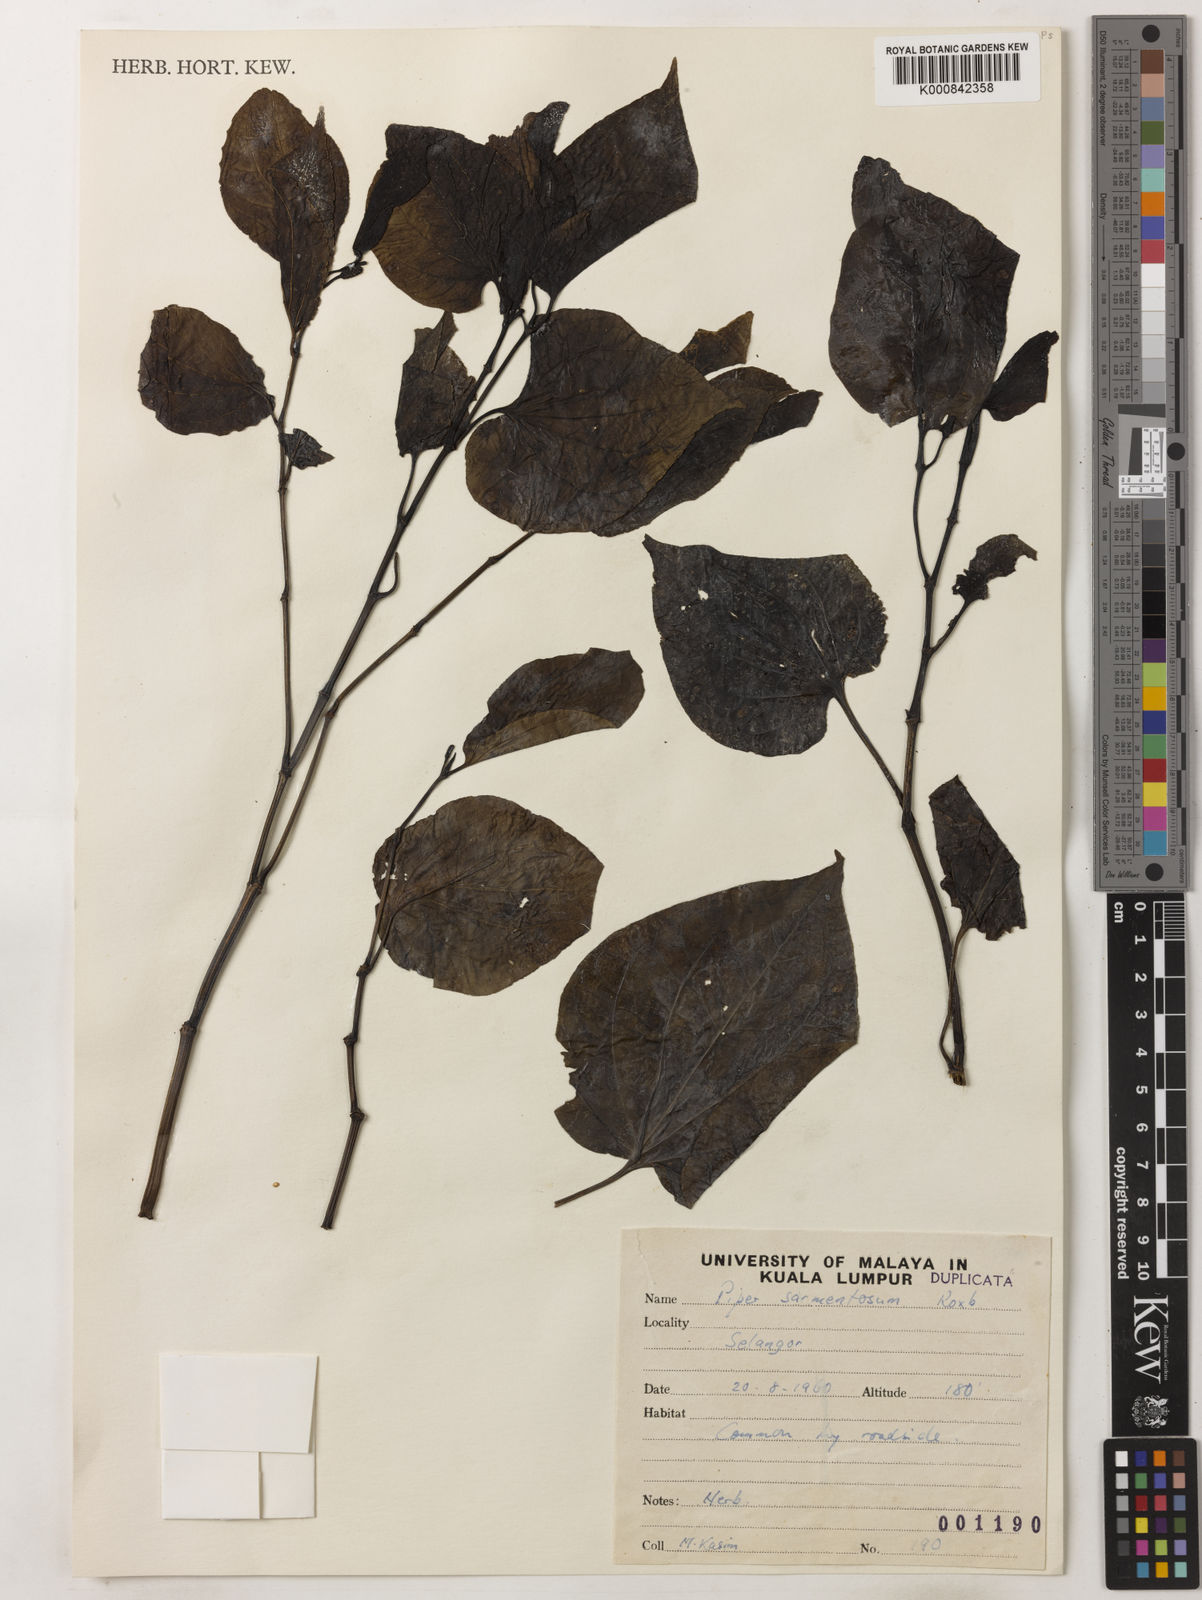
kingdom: Plantae
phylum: Tracheophyta
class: Magnoliopsida
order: Piperales
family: Piperaceae
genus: Piper
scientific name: Piper sarmentosum
